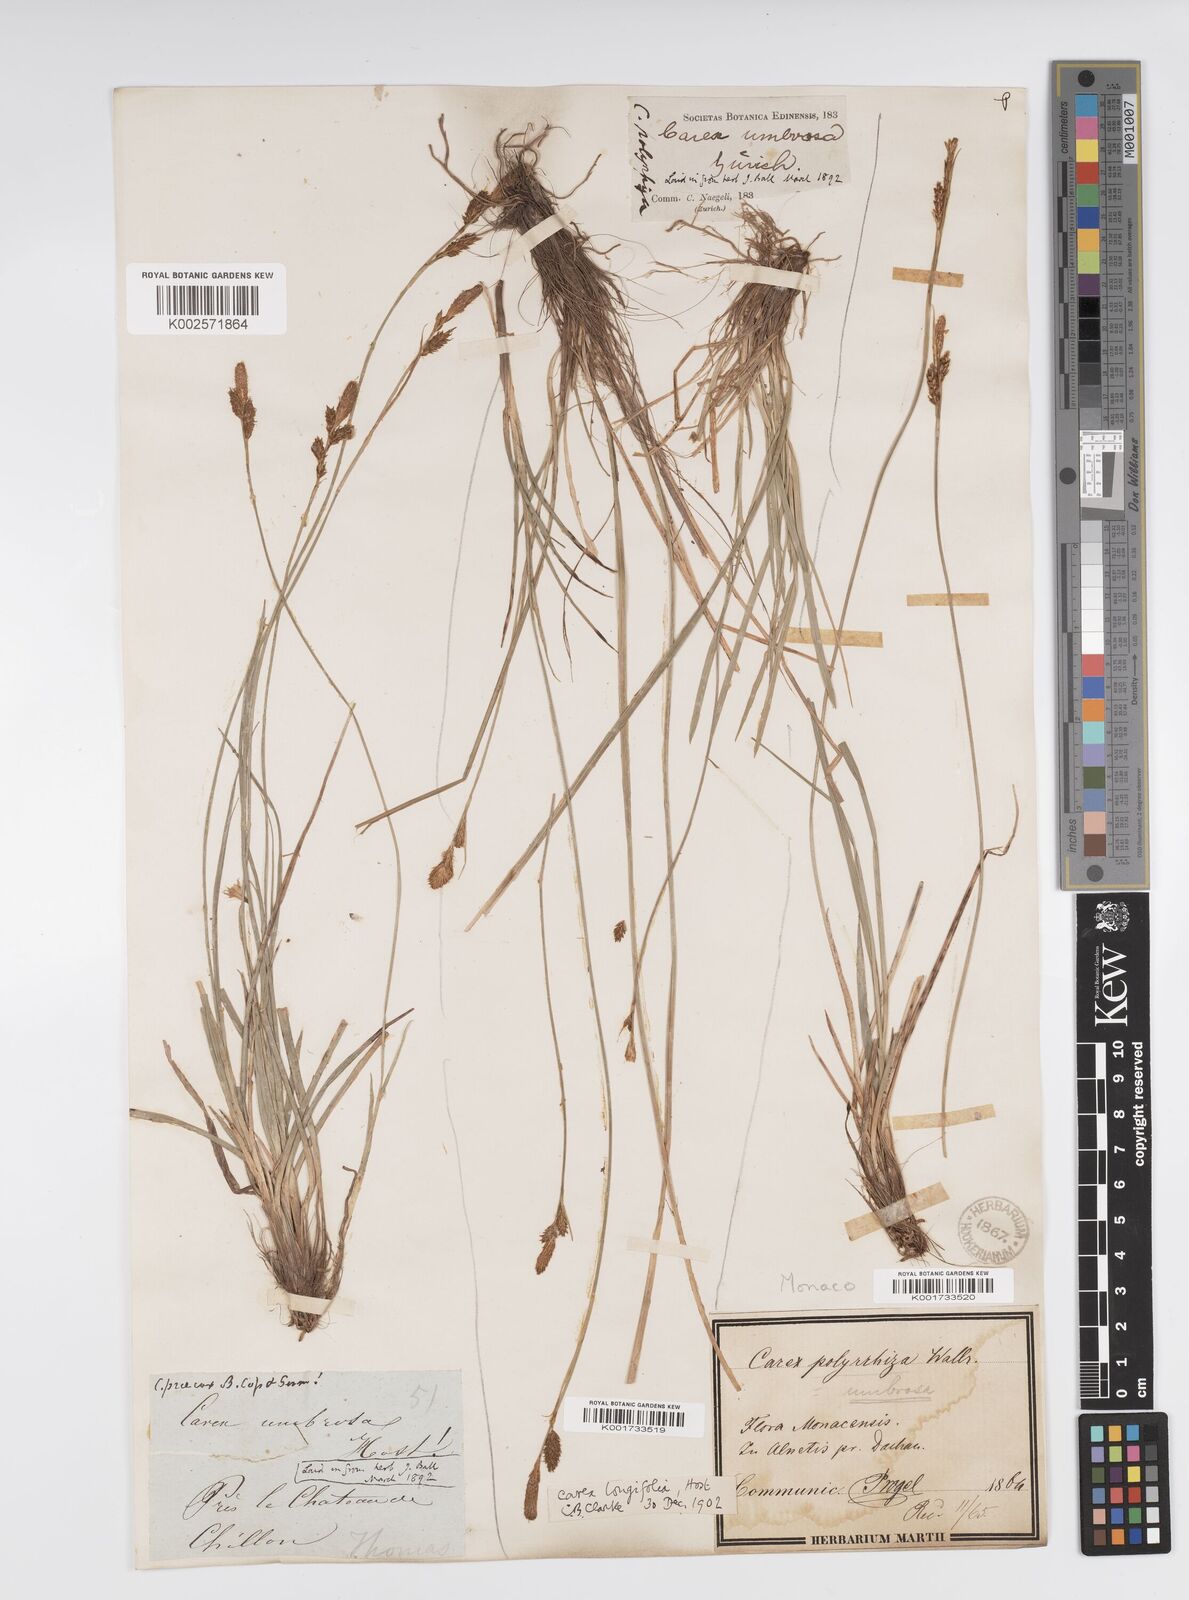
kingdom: Plantae
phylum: Tracheophyta
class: Liliopsida
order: Poales
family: Cyperaceae
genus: Carex
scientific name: Carex umbrosa
